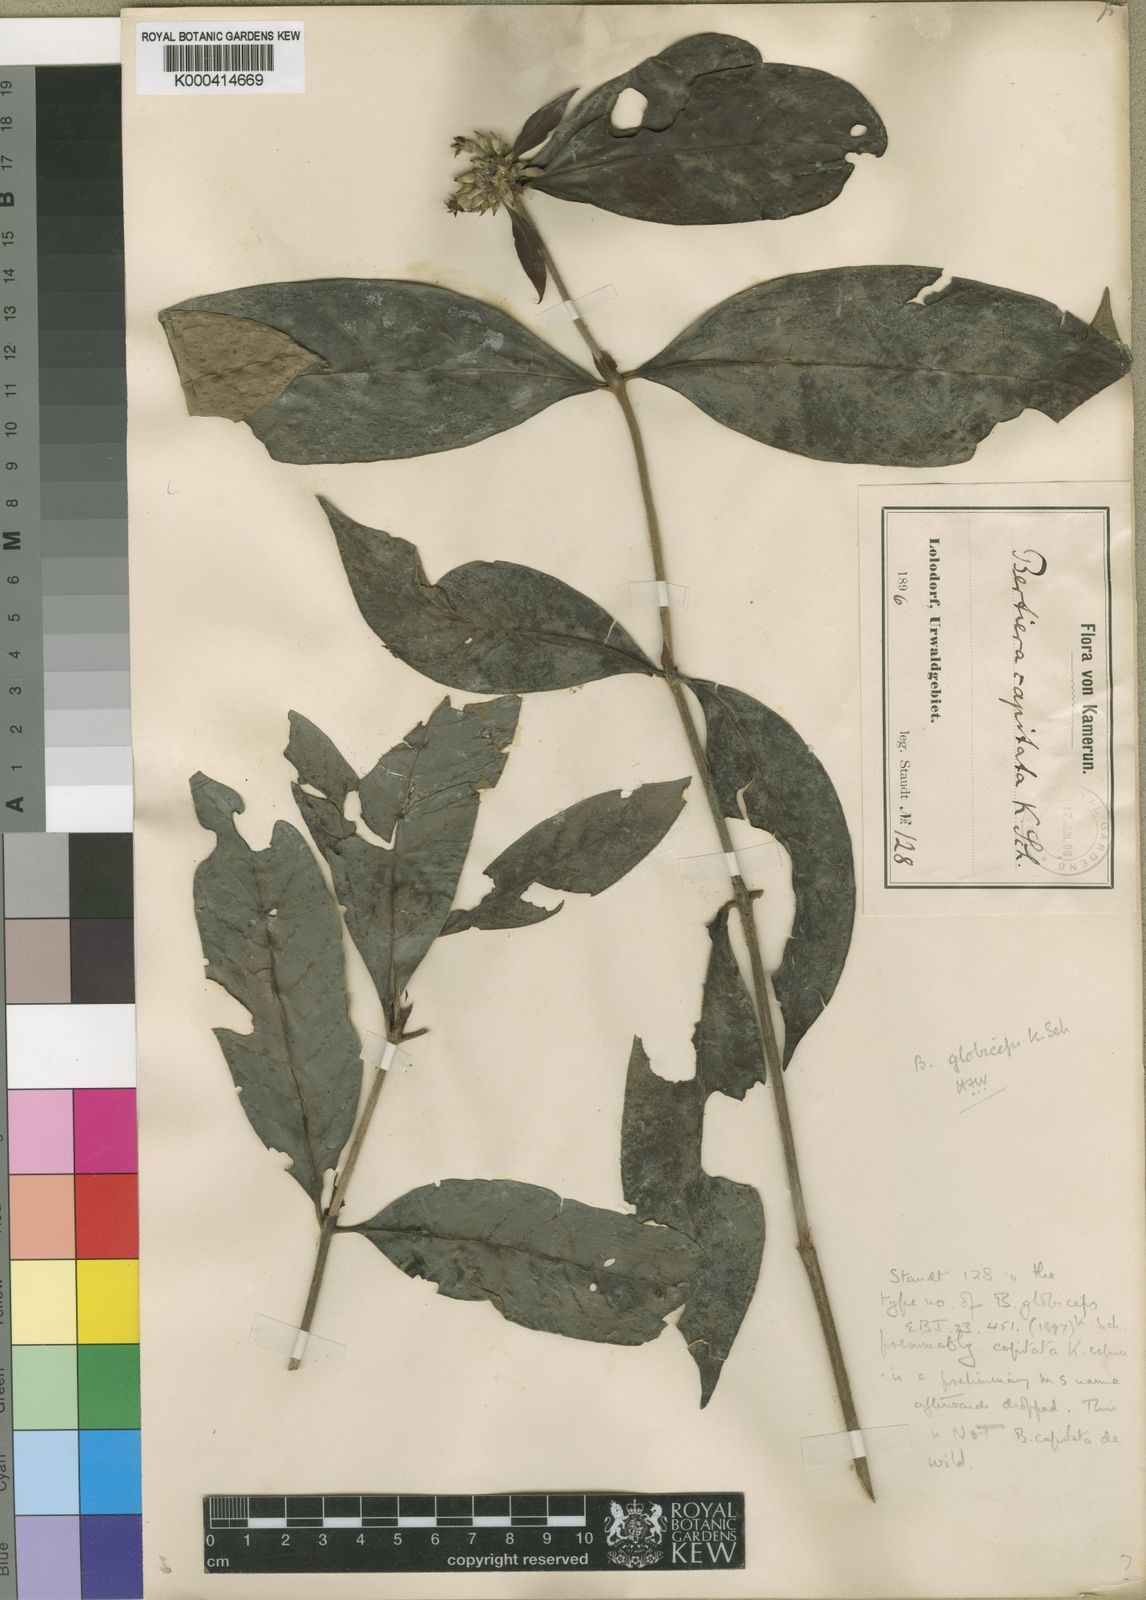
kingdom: Plantae
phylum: Tracheophyta
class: Magnoliopsida
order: Gentianales
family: Rubiaceae
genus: Bertiera
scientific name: Bertiera globiceps
